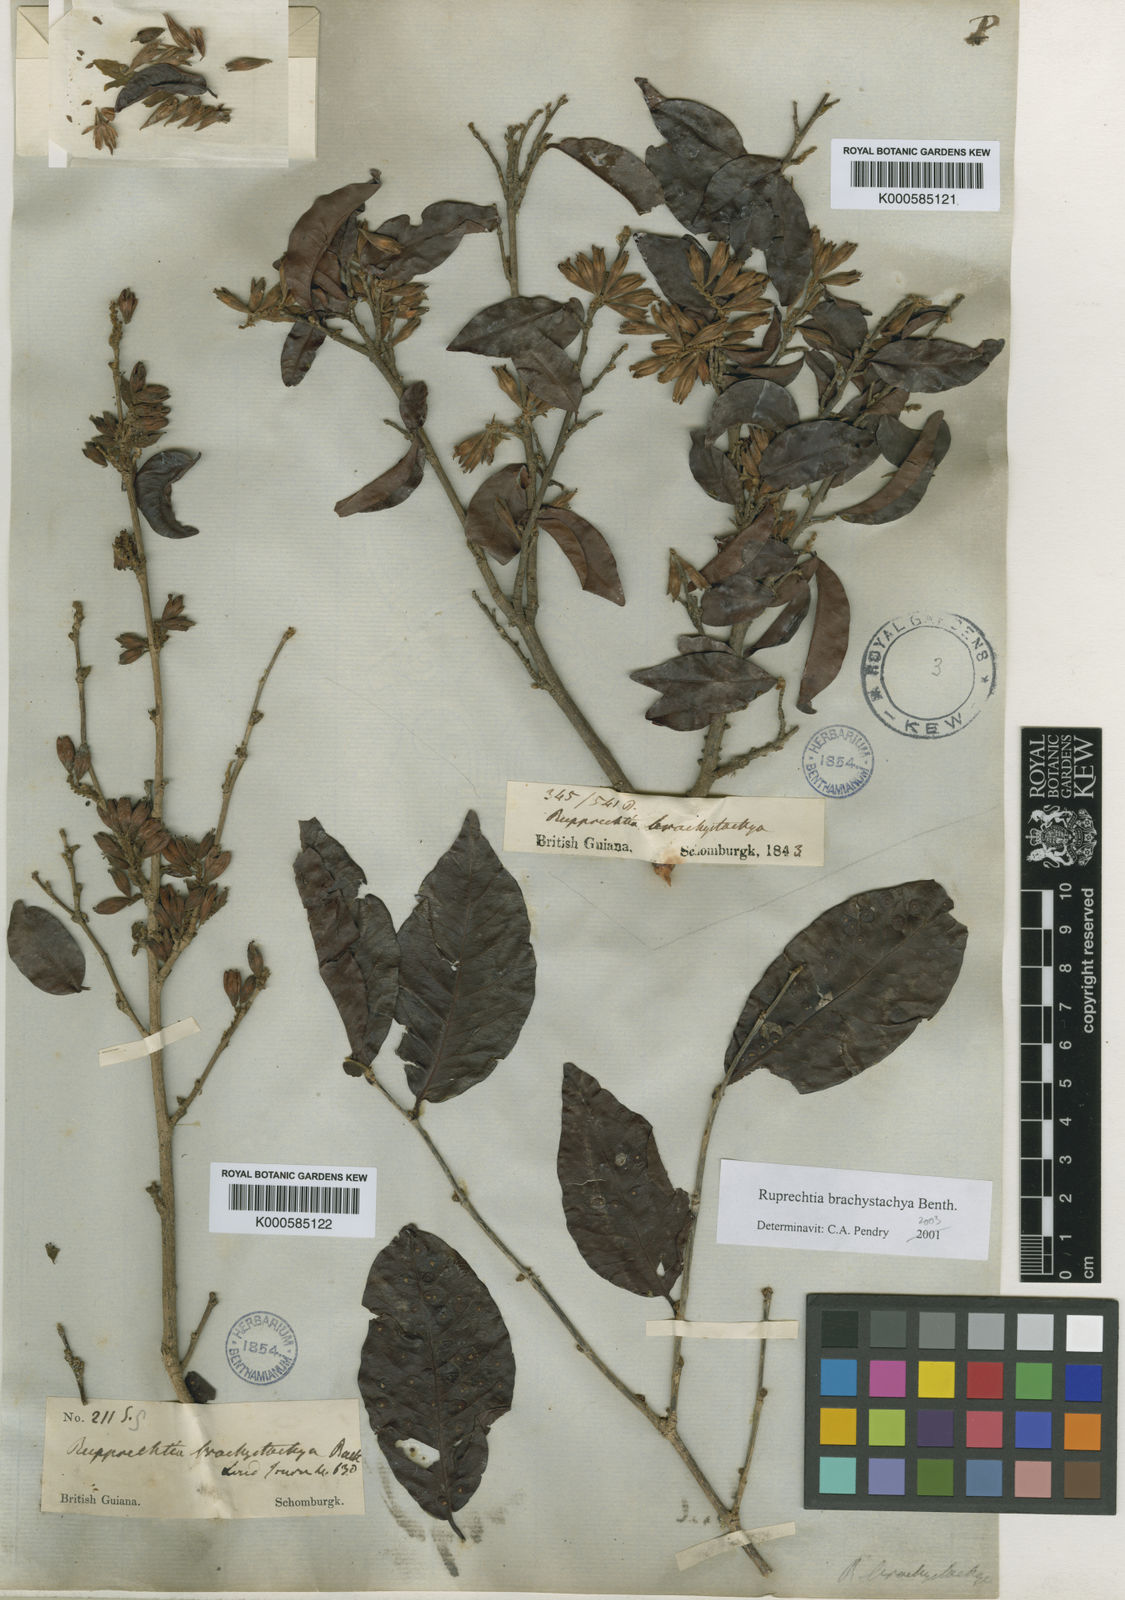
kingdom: Plantae
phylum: Tracheophyta
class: Magnoliopsida
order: Caryophyllales
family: Polygonaceae
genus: Ruprechtia
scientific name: Ruprechtia brachystachya
